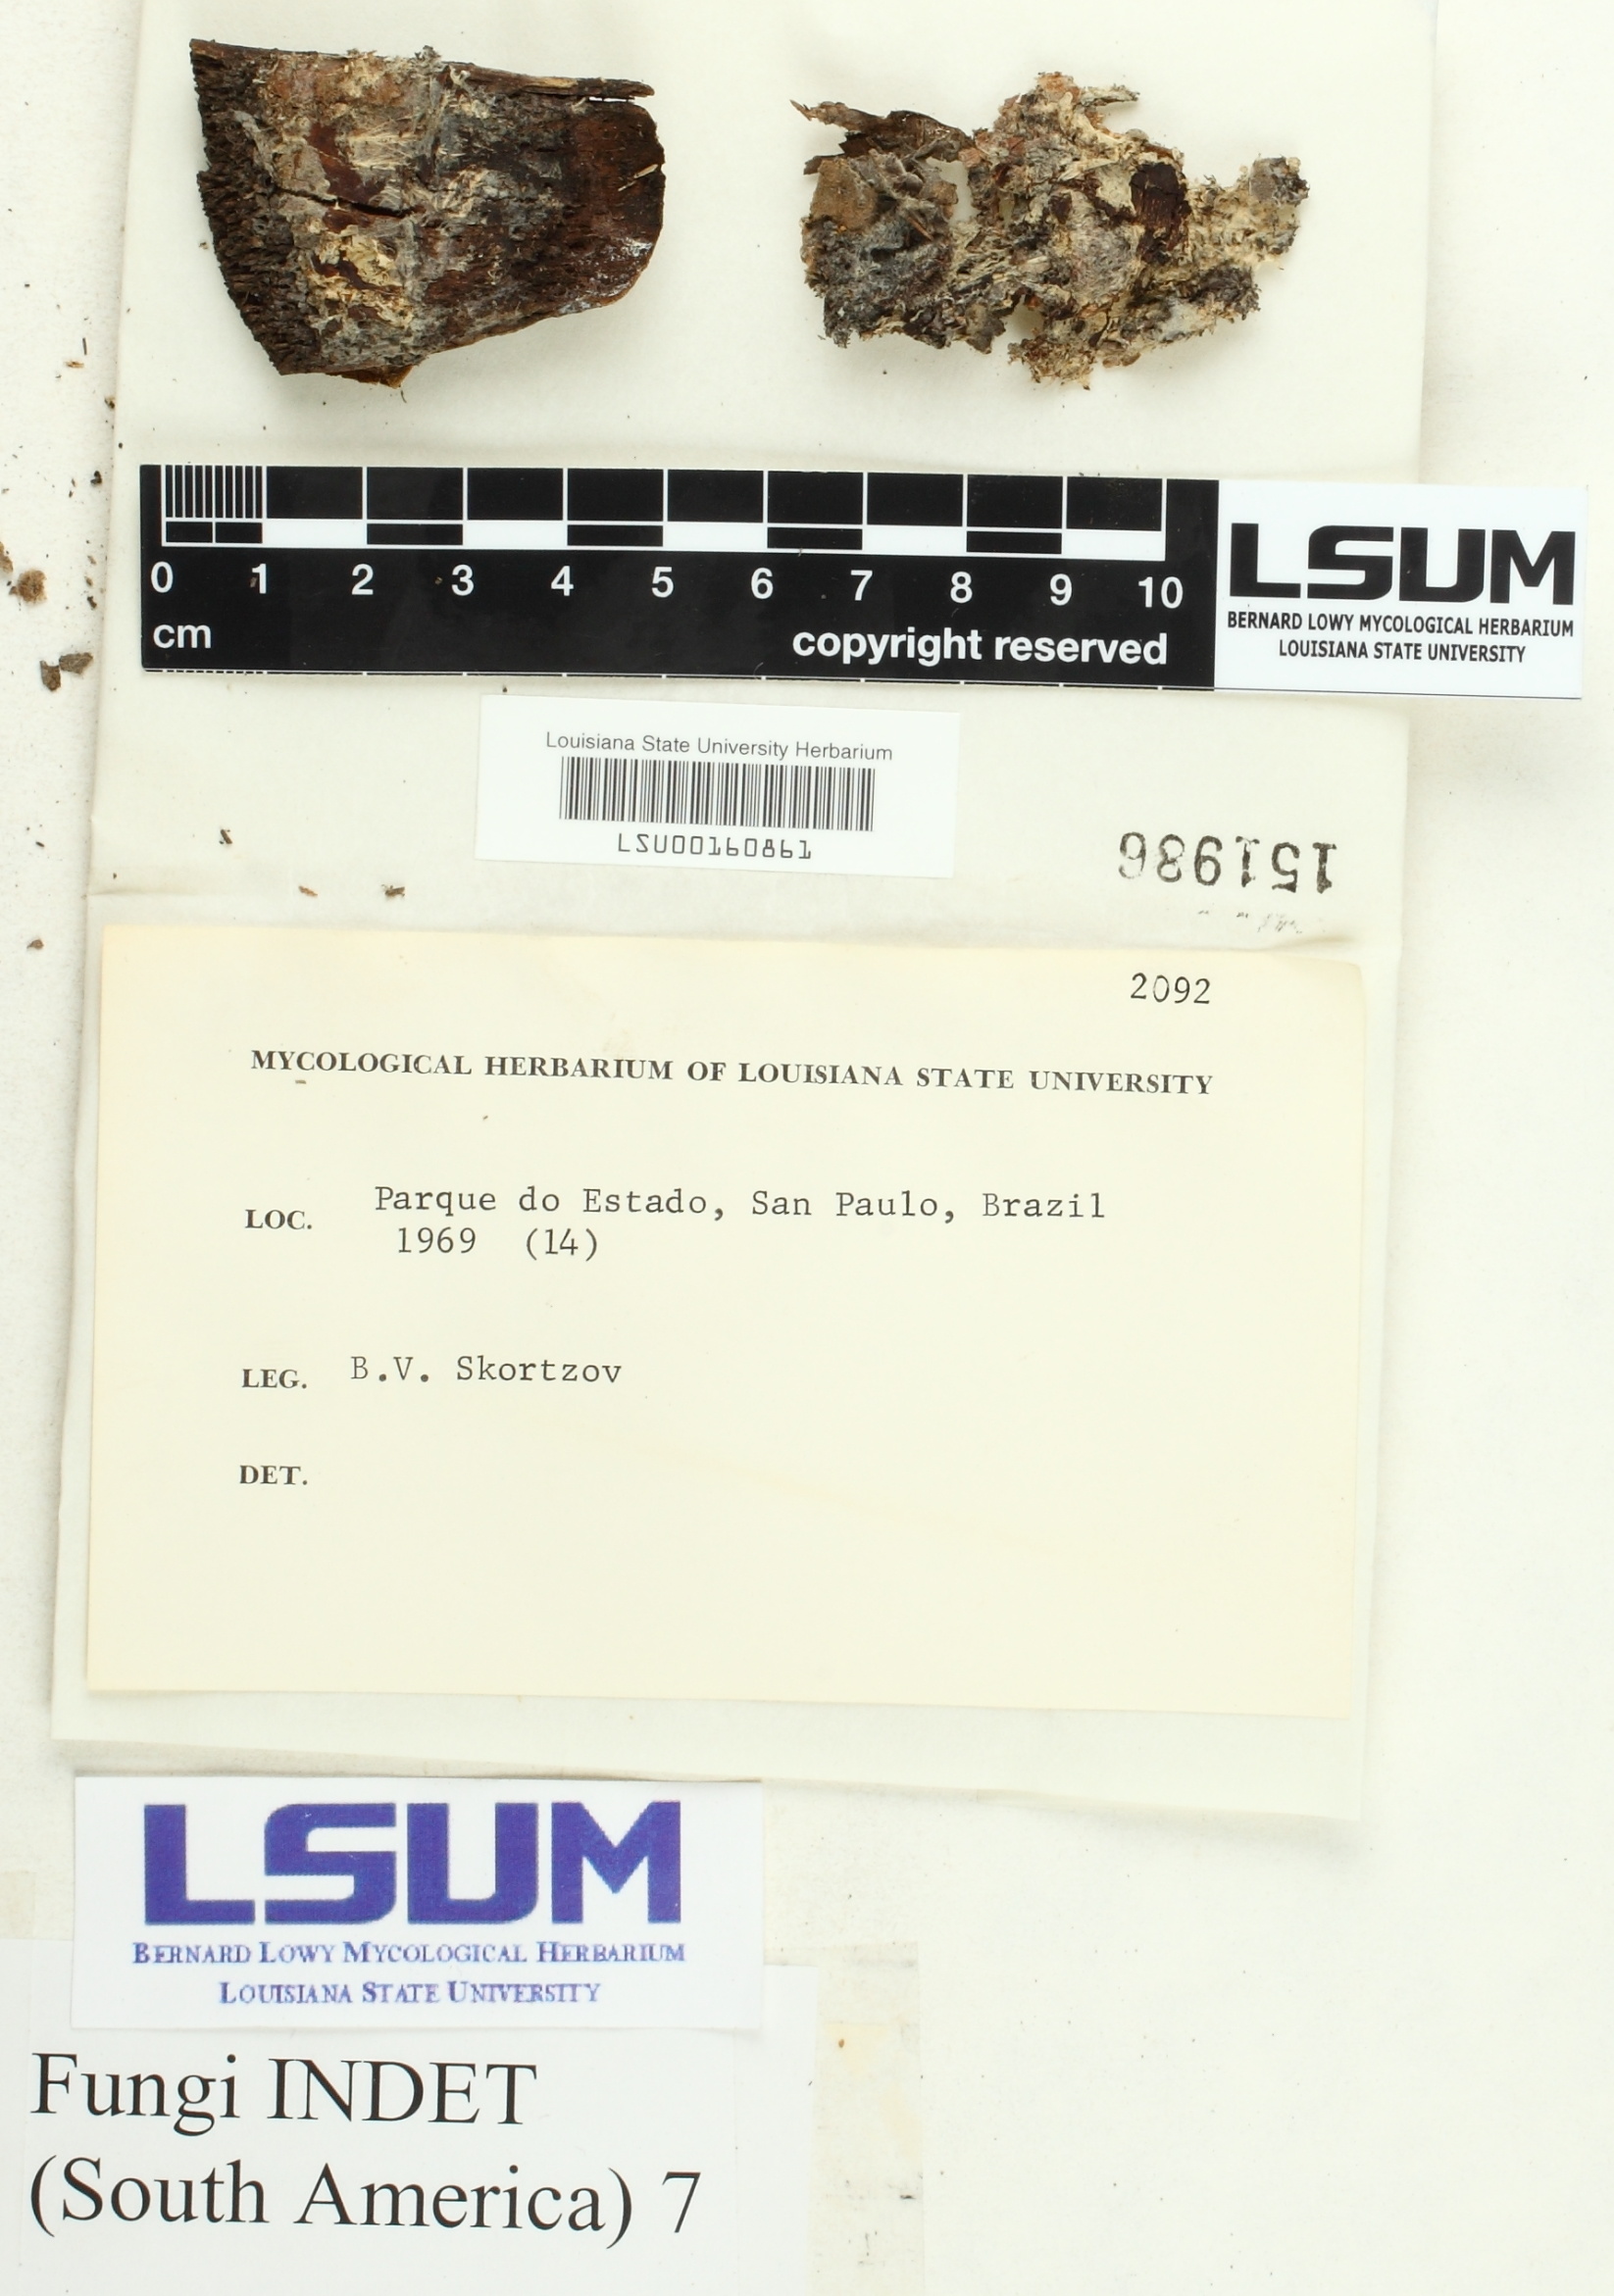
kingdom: Fungi
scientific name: Fungi
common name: Fungi
